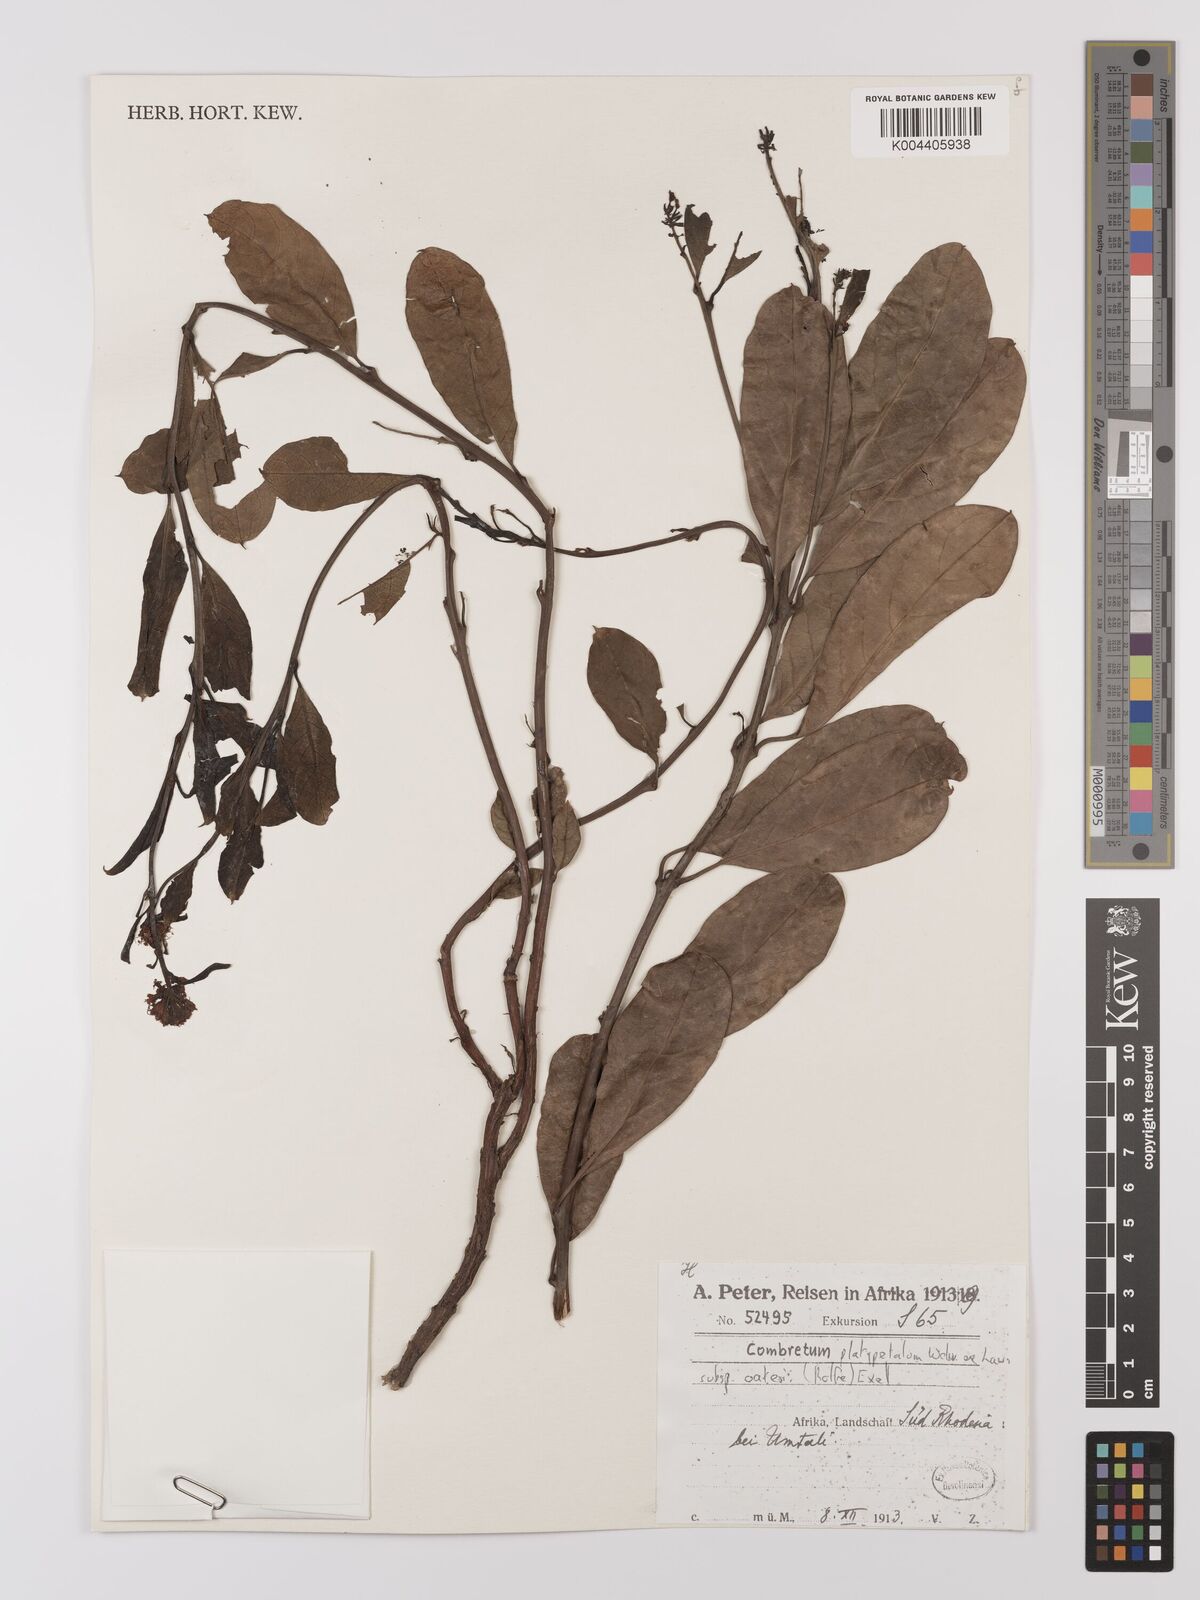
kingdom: Plantae
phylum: Tracheophyta
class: Magnoliopsida
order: Myrtales
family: Combretaceae
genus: Combretum
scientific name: Combretum platypetalum
